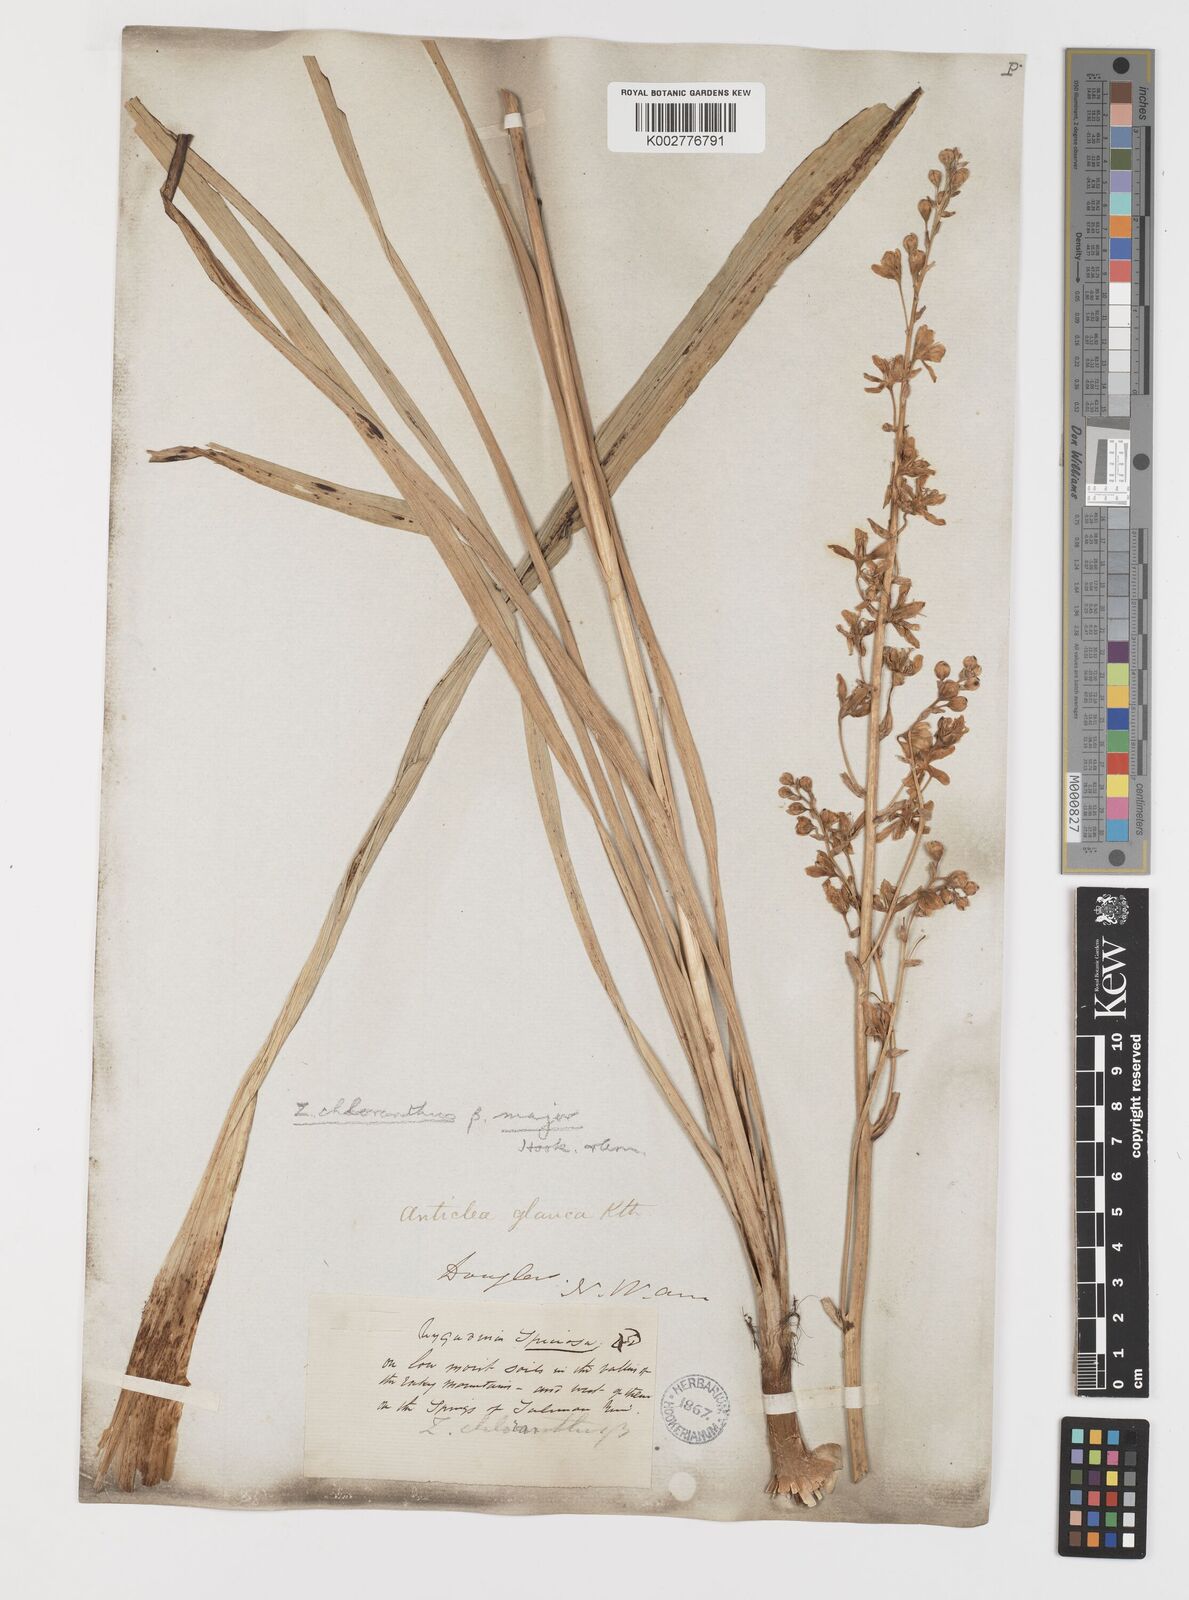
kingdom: Plantae
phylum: Tracheophyta
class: Liliopsida
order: Liliales
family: Melanthiaceae
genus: Anticlea
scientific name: Anticlea elegans
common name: Mountain death camas
